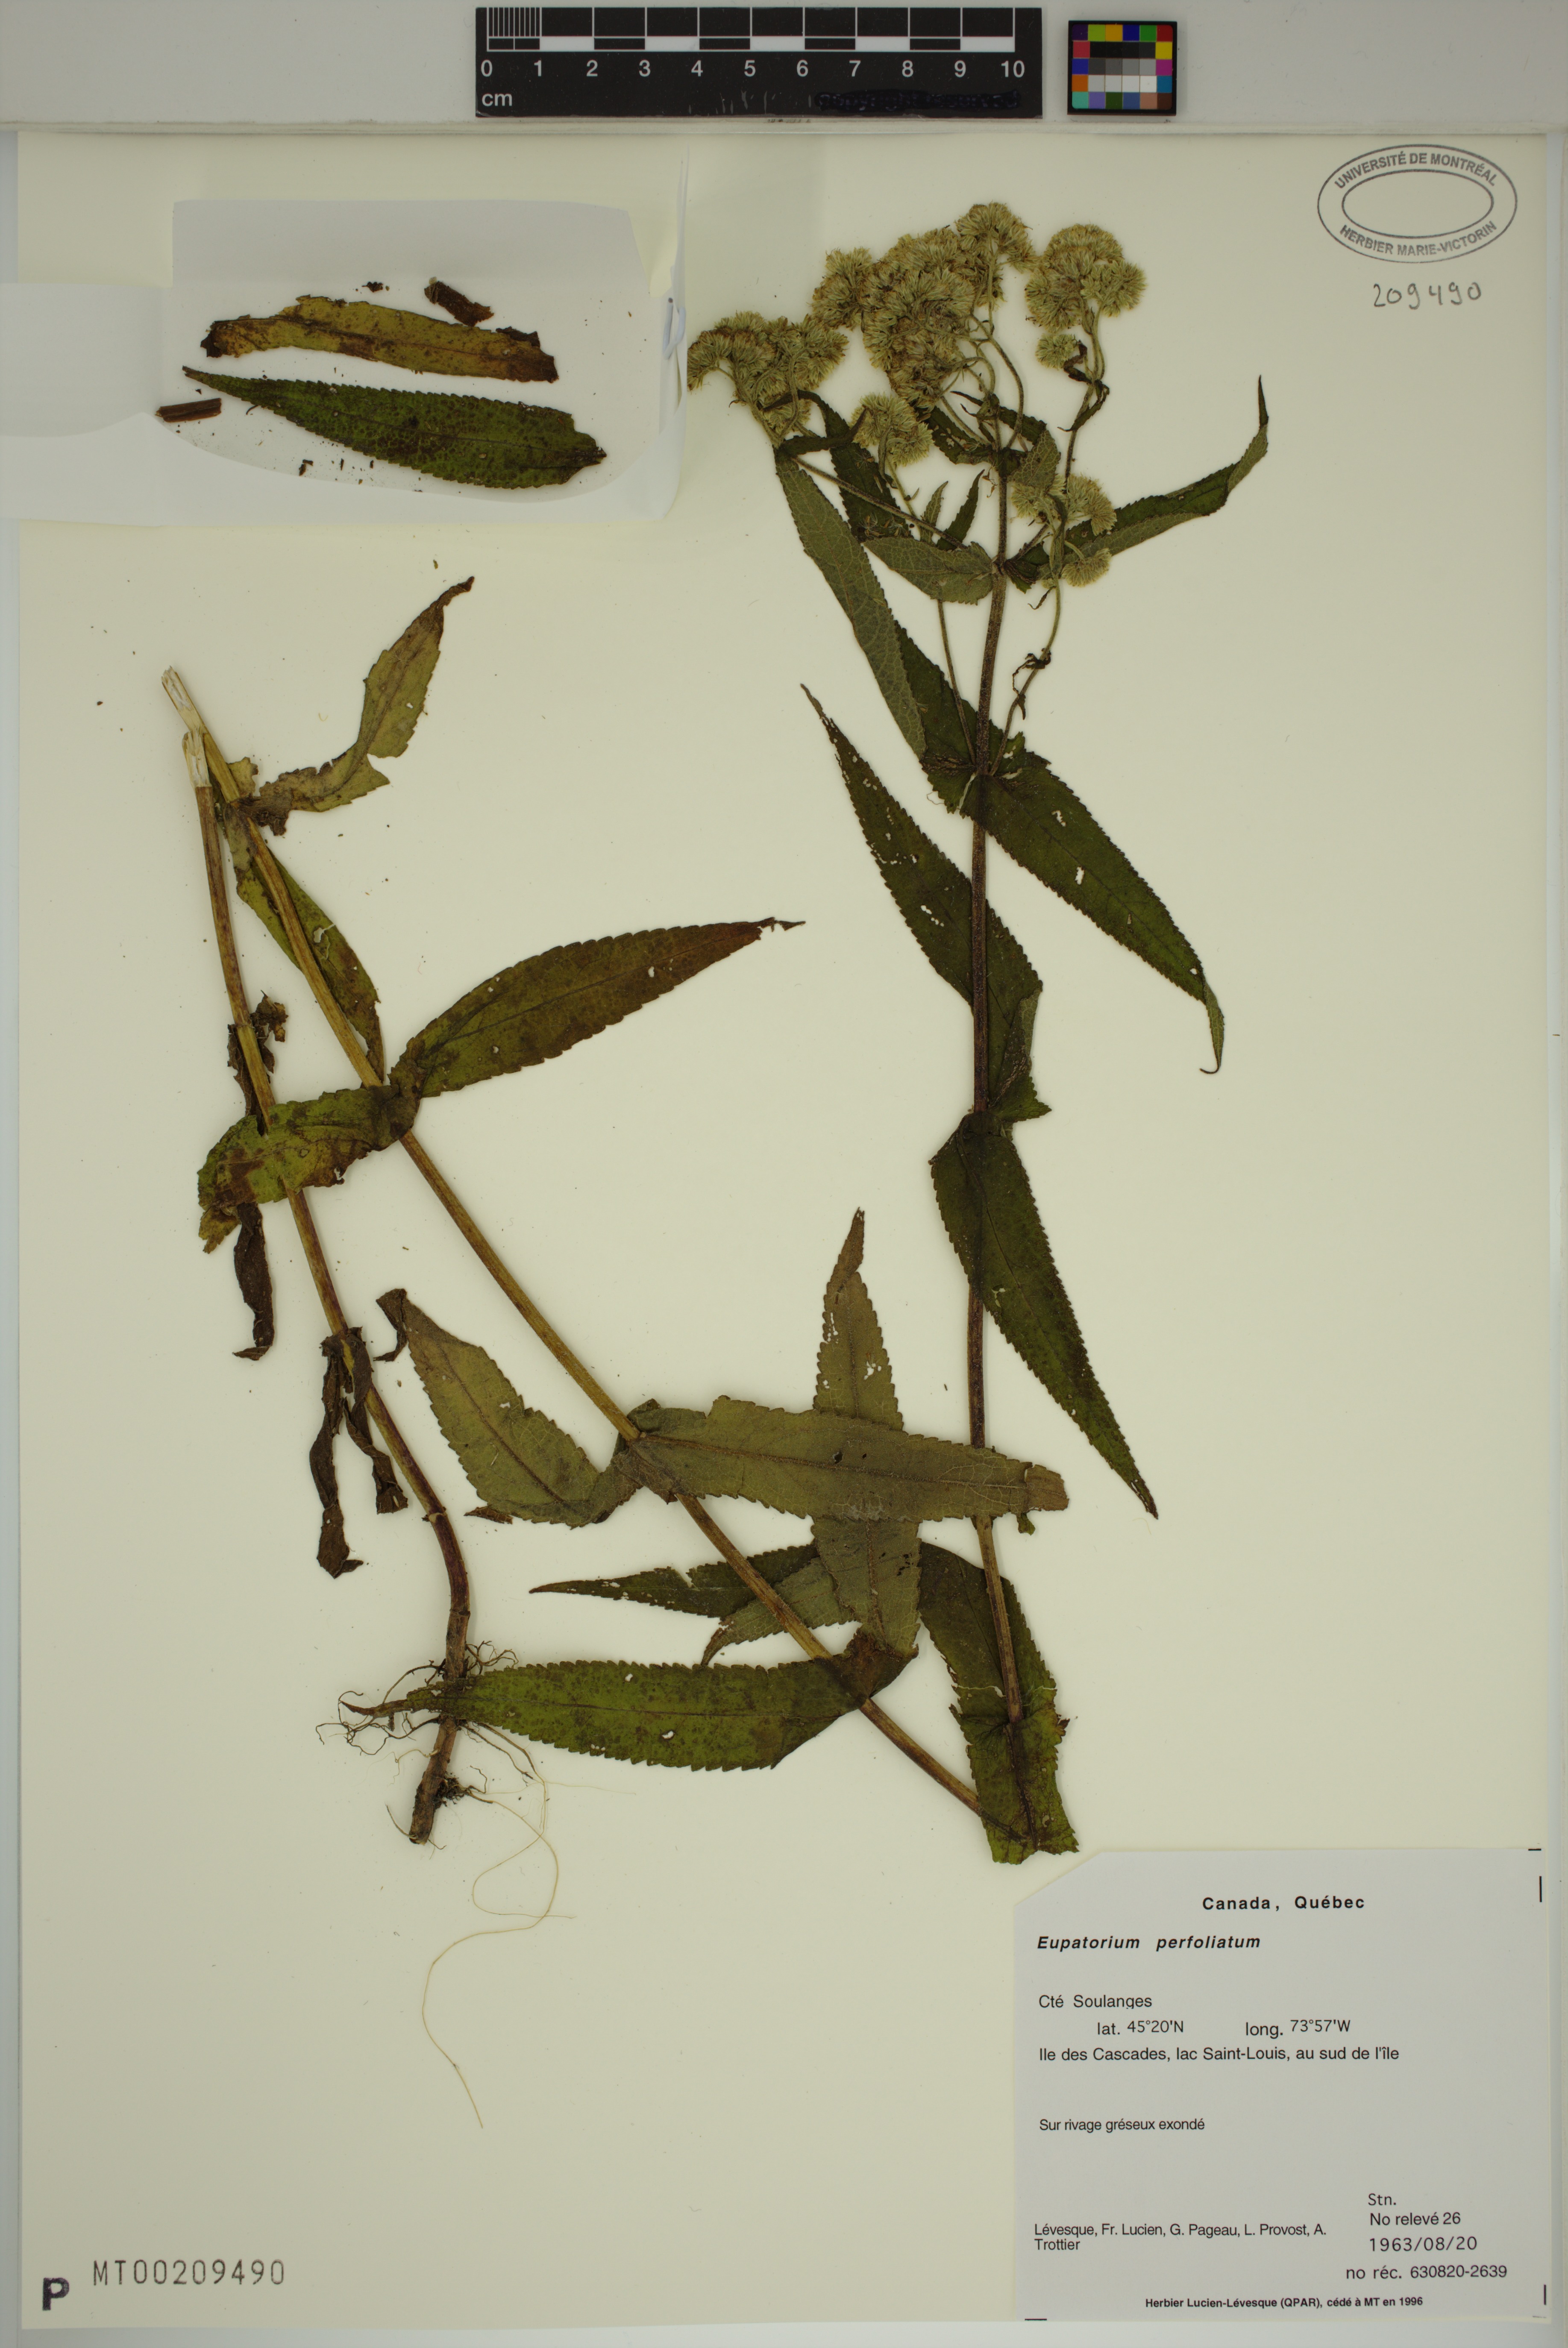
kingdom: Plantae
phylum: Tracheophyta
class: Magnoliopsida
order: Asterales
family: Asteraceae
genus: Eupatorium
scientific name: Eupatorium perfoliatum
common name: Boneset
